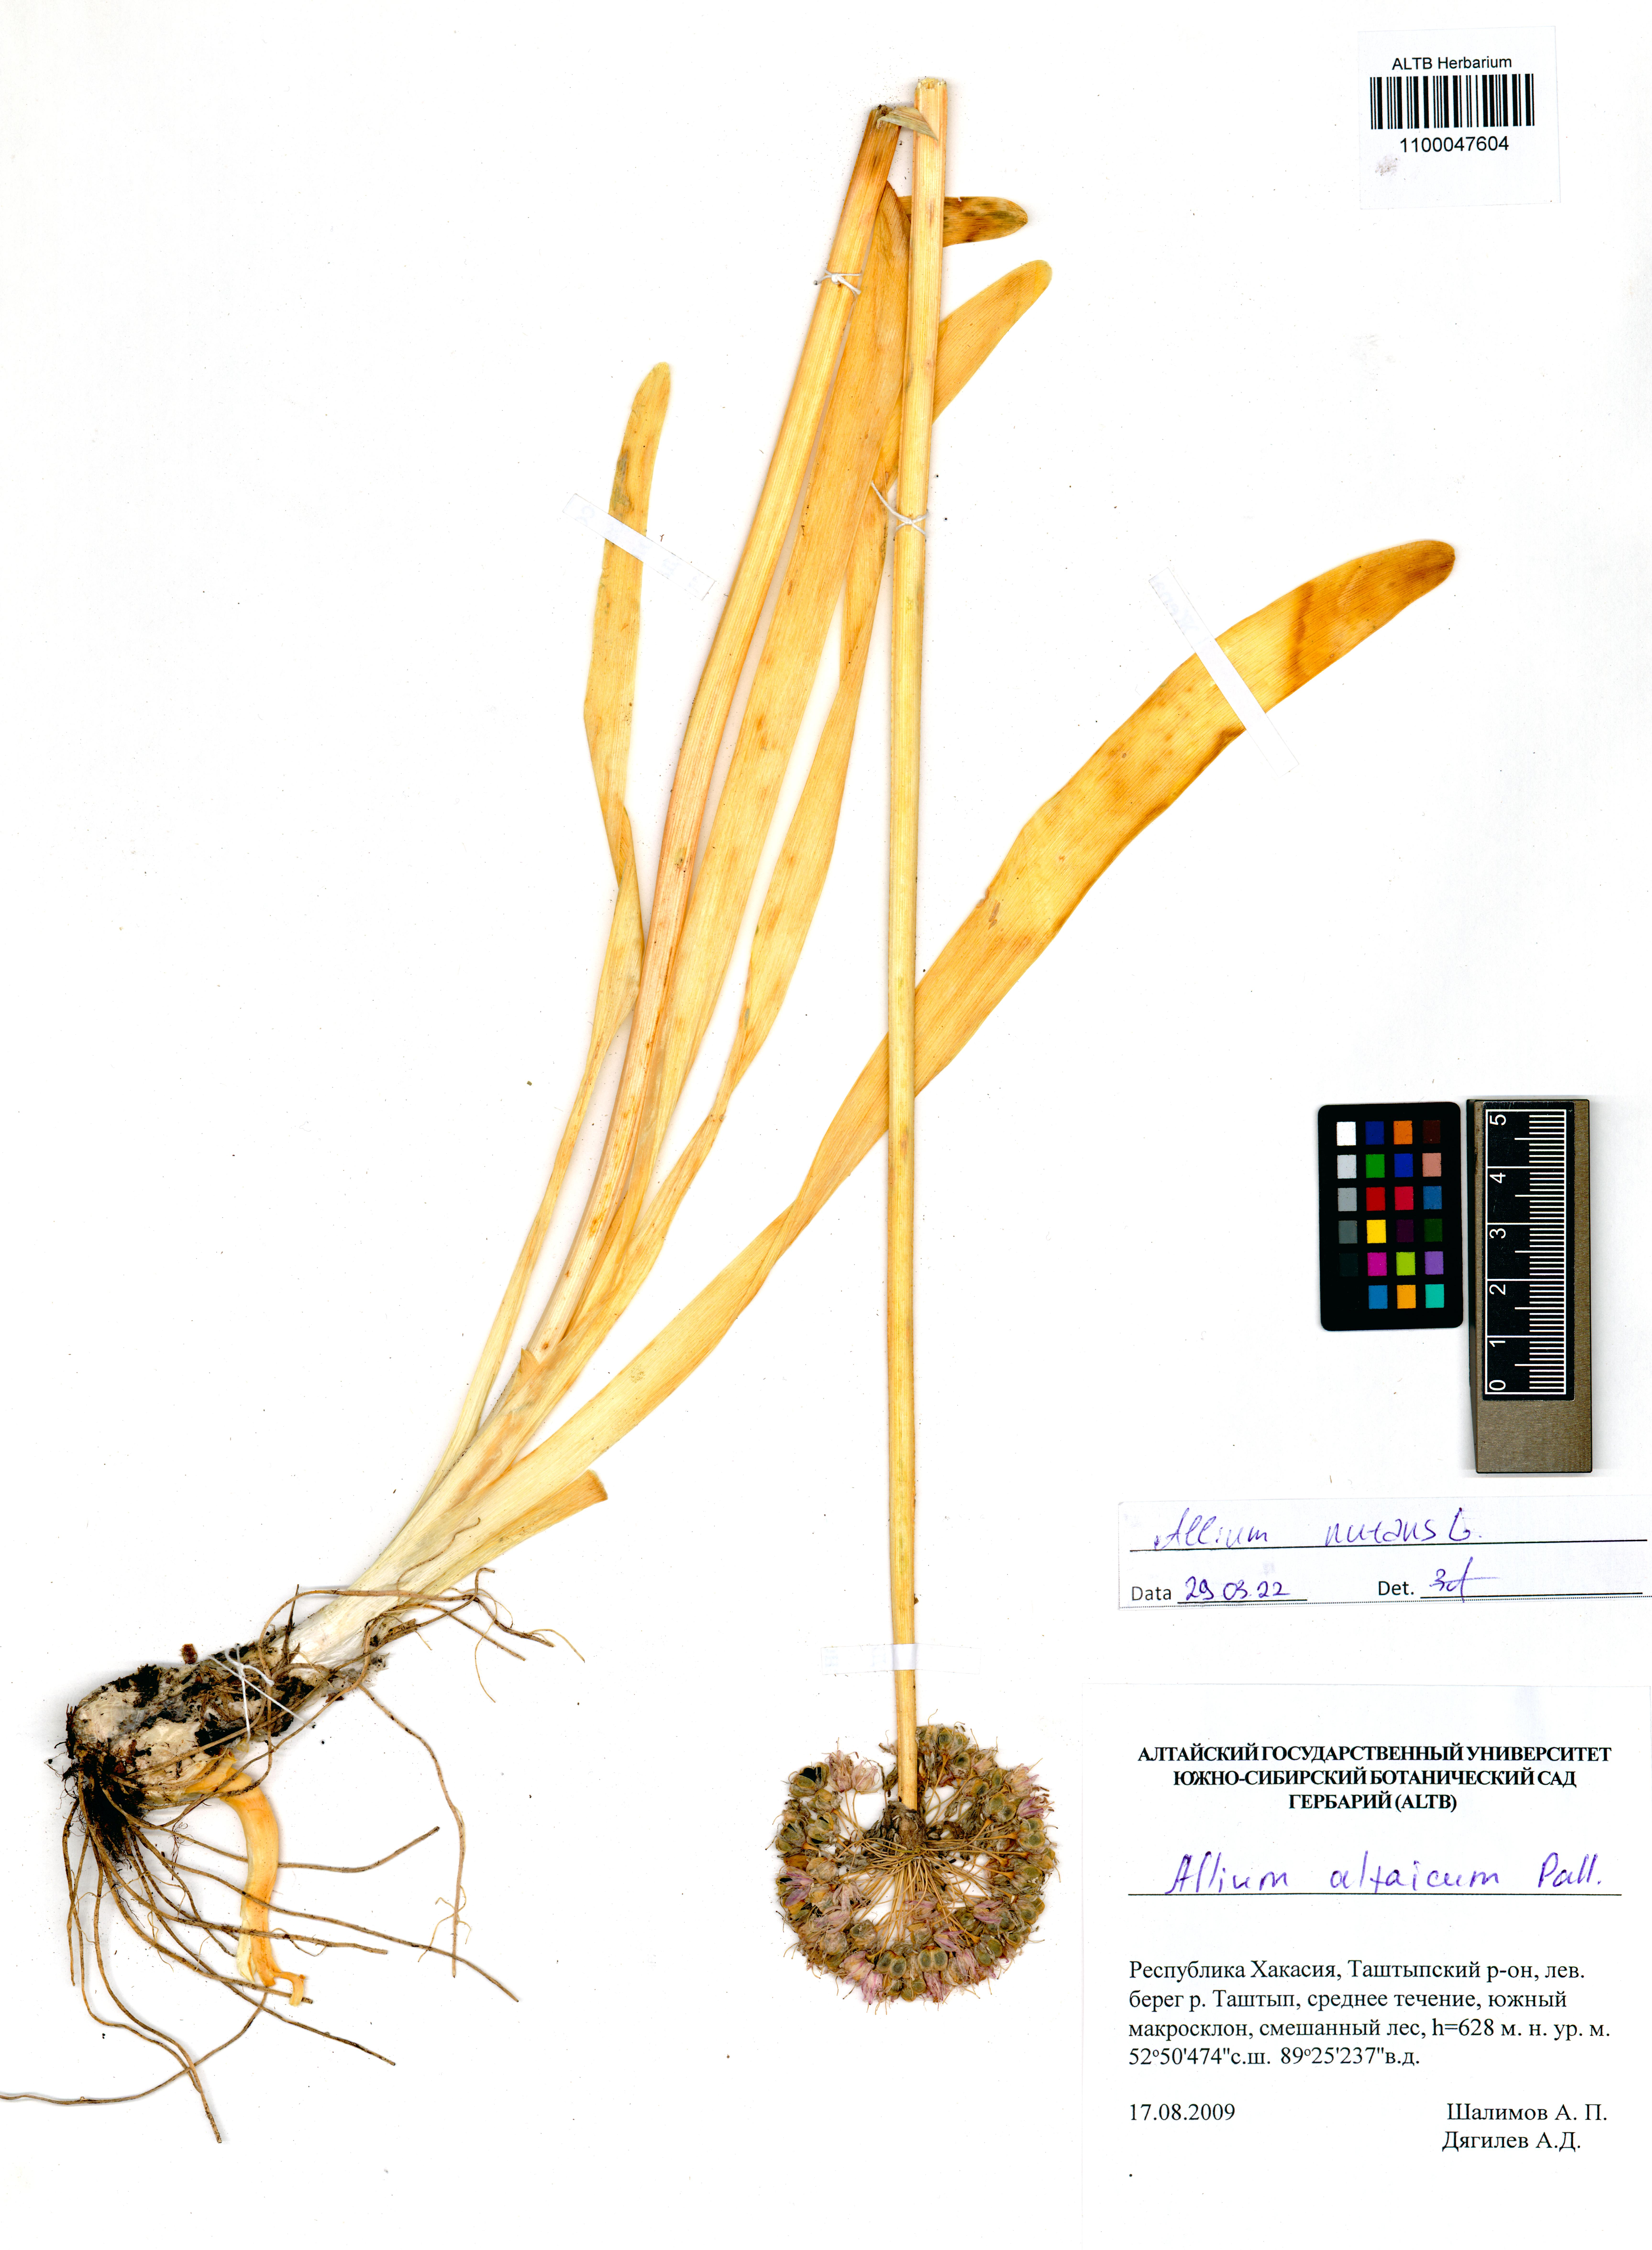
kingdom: Plantae
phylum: Tracheophyta
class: Liliopsida
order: Asparagales
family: Amaryllidaceae
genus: Allium
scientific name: Allium nutans
